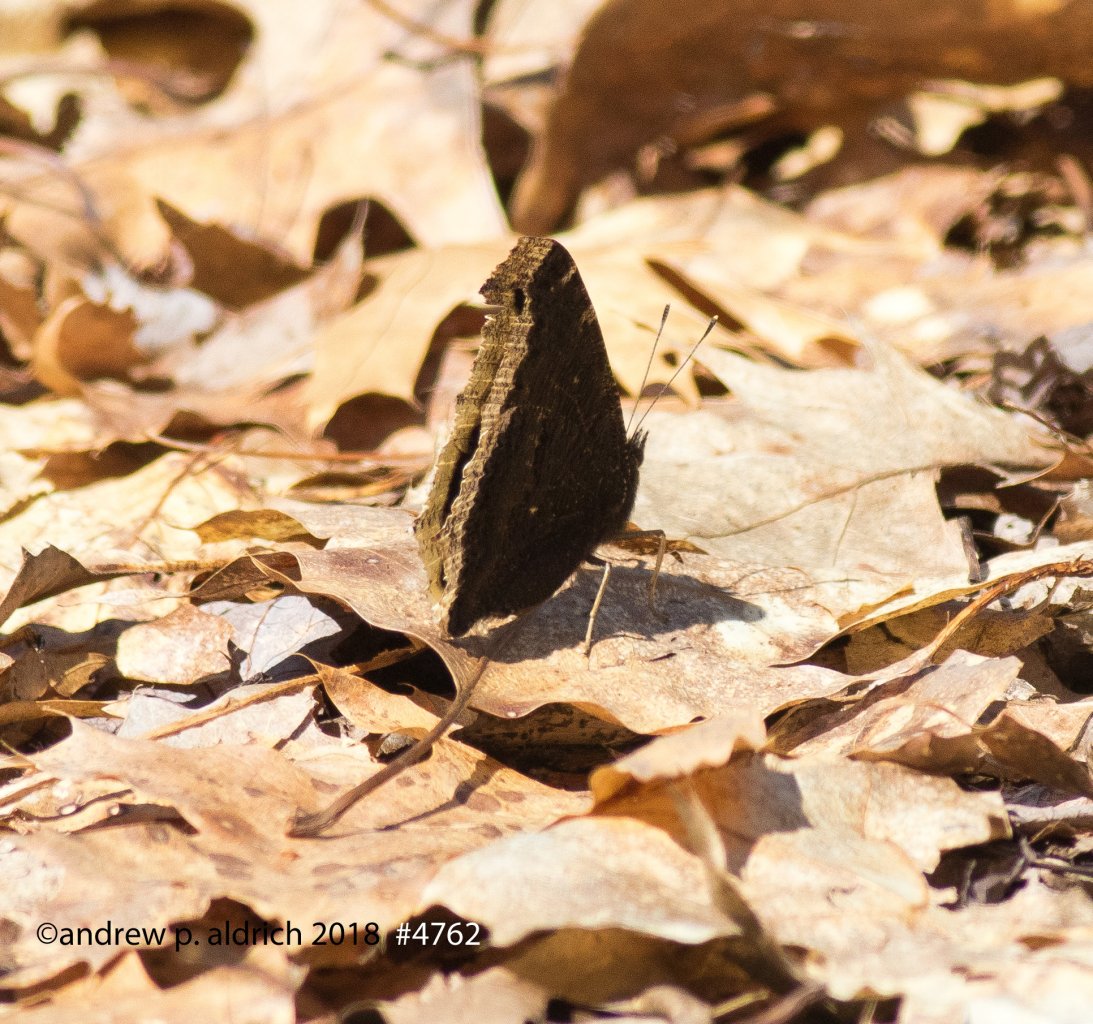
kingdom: Animalia
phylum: Arthropoda
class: Insecta
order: Lepidoptera
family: Nymphalidae
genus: Nymphalis
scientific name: Nymphalis antiopa
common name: Mourning Cloak
